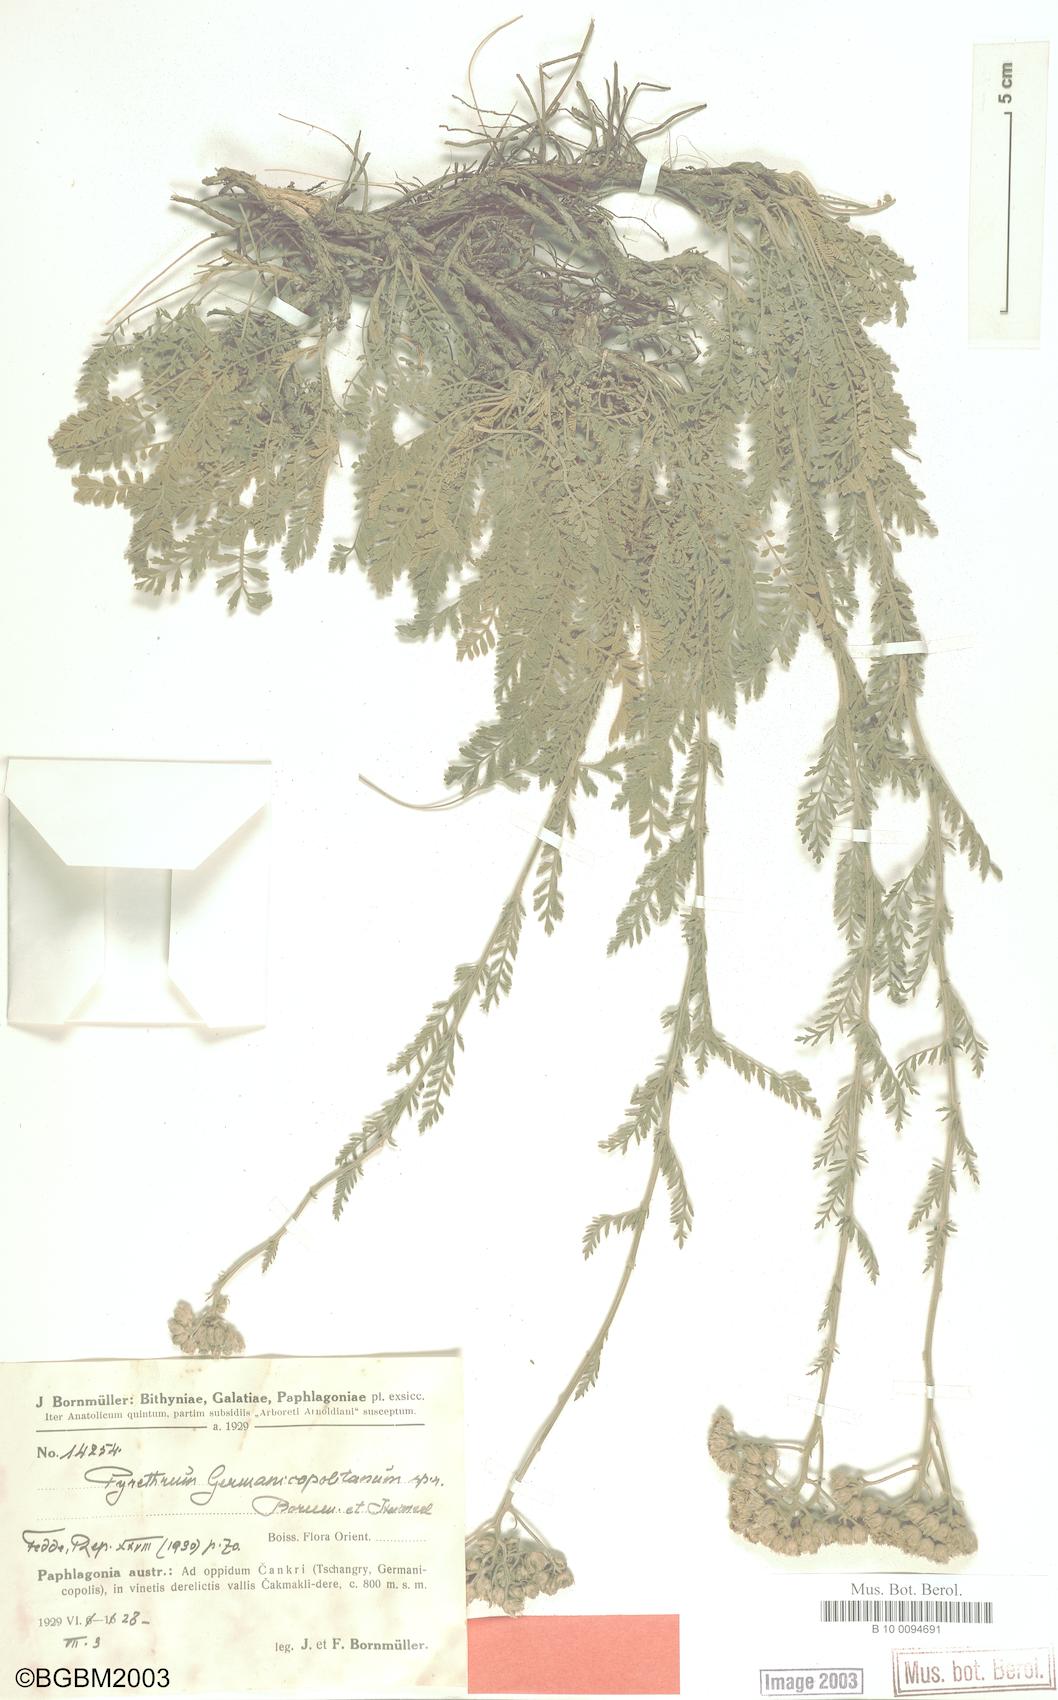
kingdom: Plantae
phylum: Tracheophyta
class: Magnoliopsida
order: Asterales
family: Asteraceae
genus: Tanacetum
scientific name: Tanacetum germanicopolitanum
